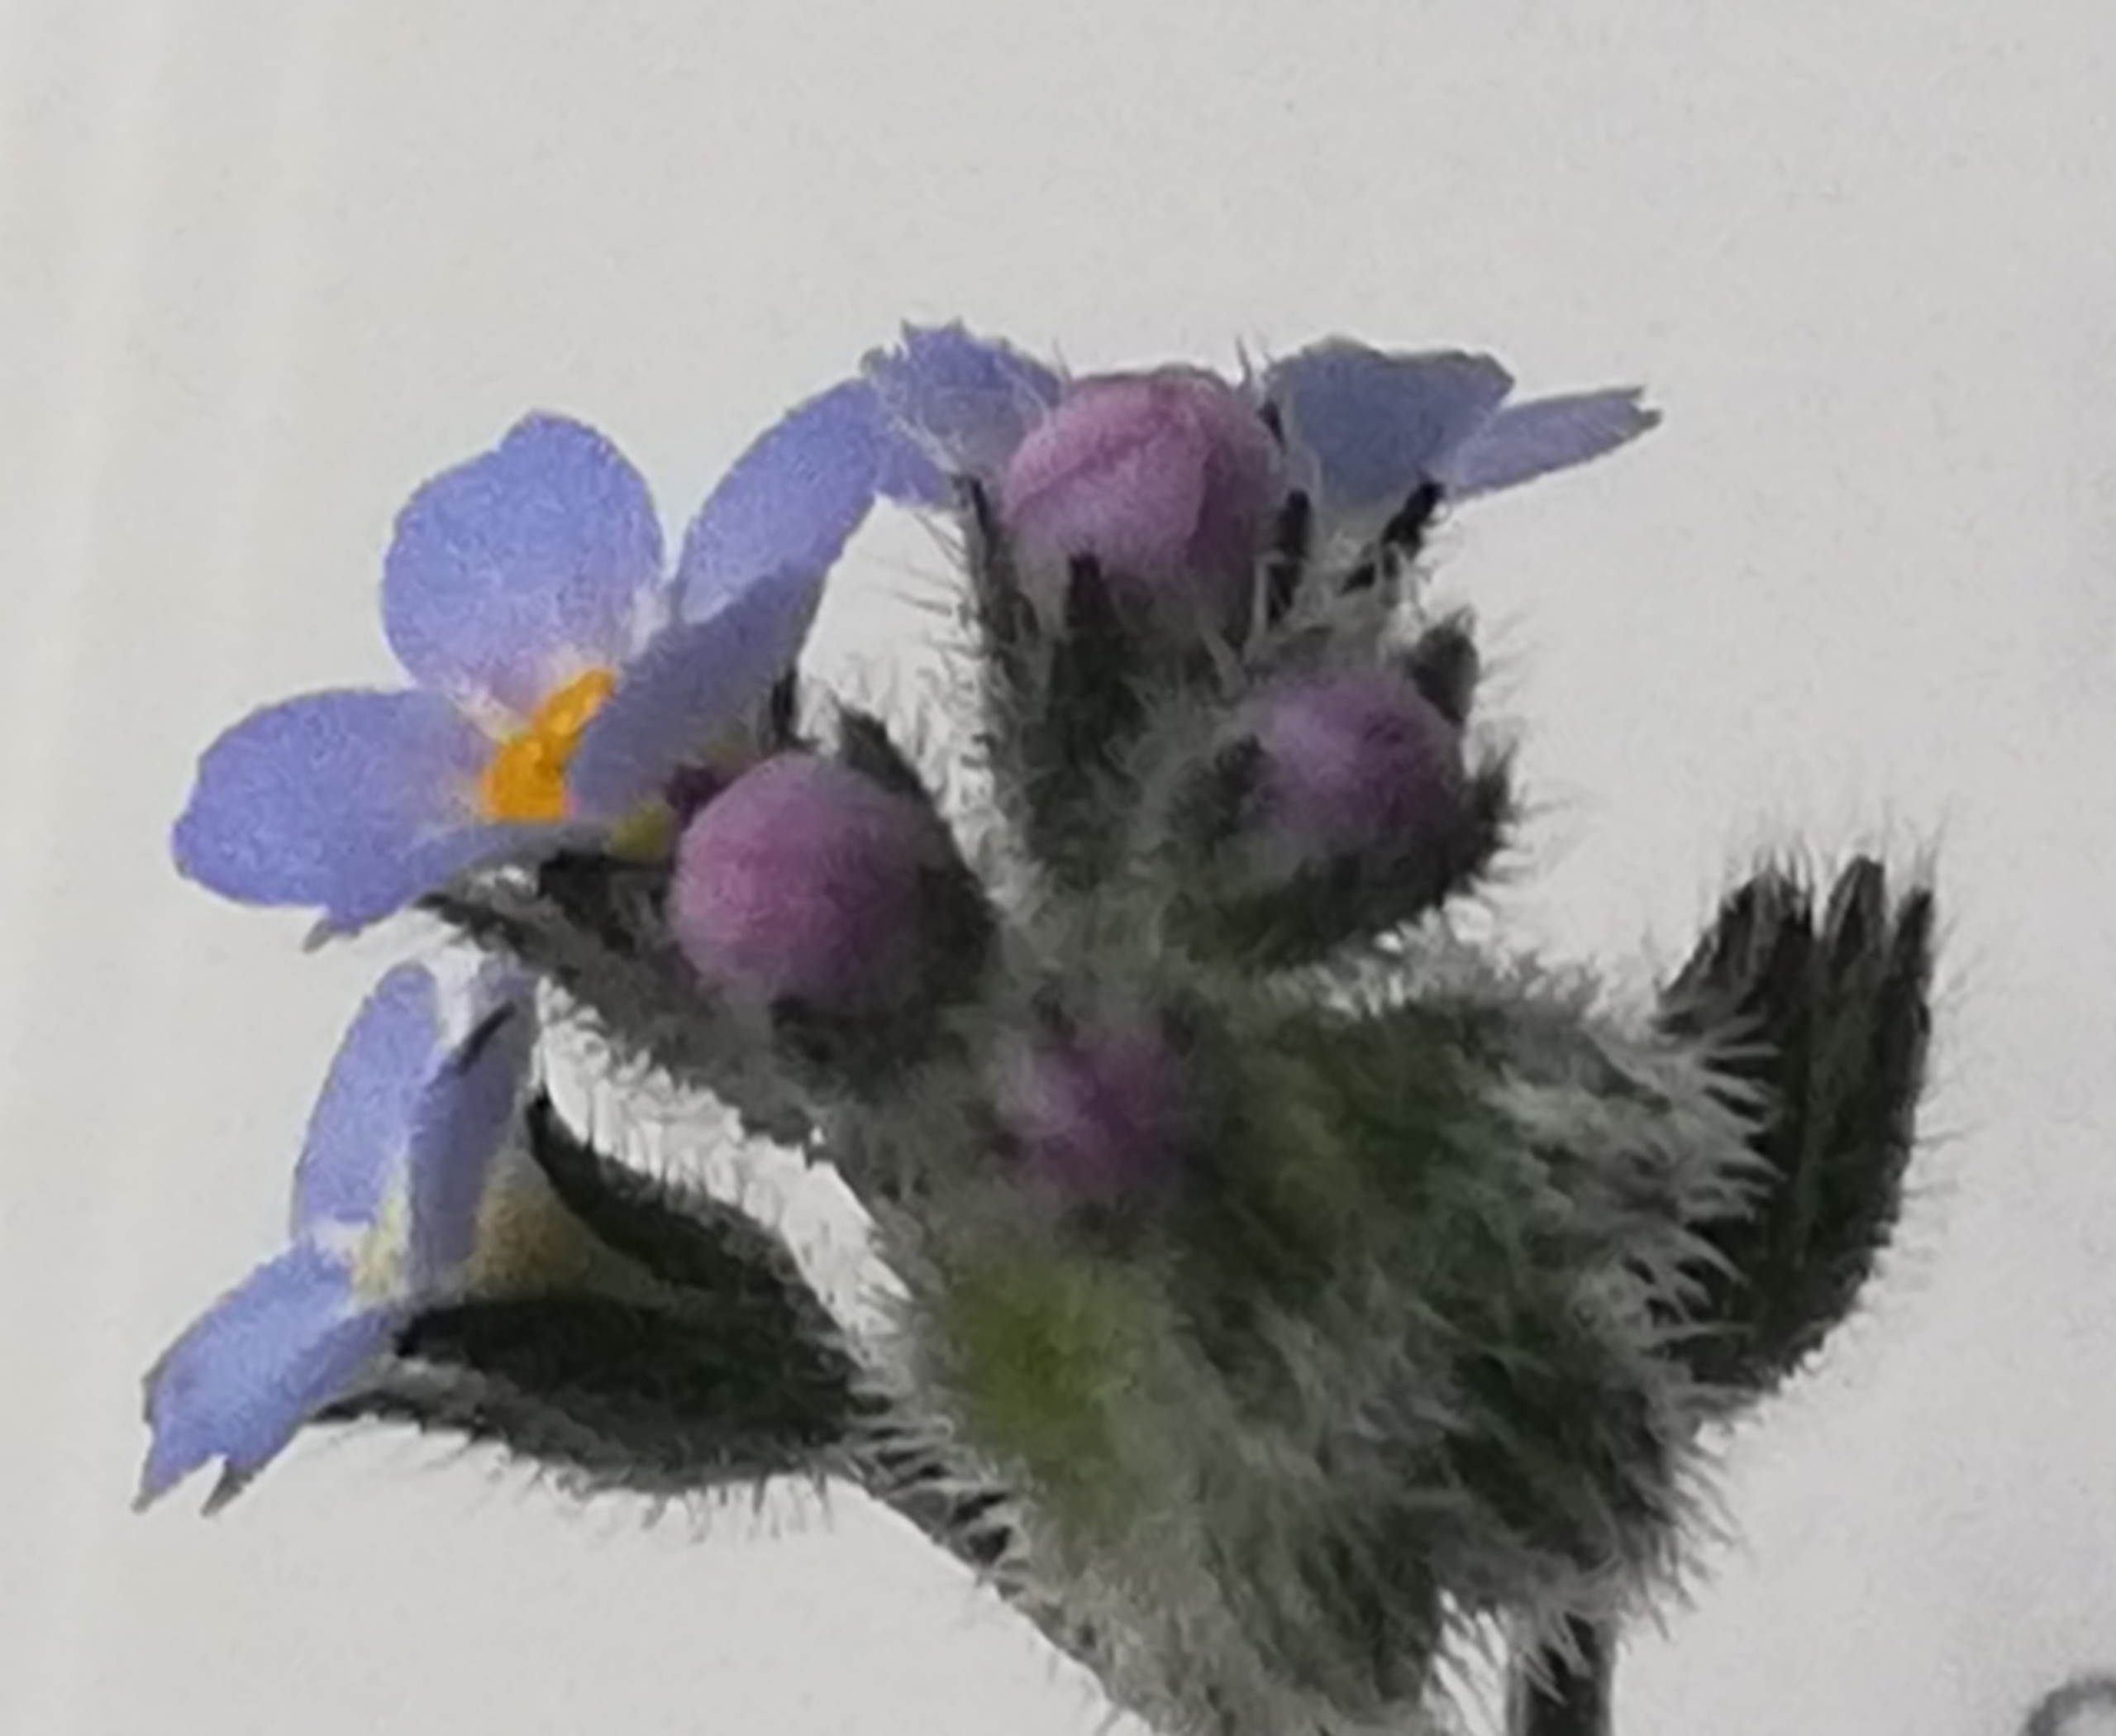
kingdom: Plantae
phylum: Tracheophyta
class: Magnoliopsida
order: Boraginales
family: Boraginaceae
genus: Myosotis
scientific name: Myosotis arvensis
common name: Mark-forglemmigej
